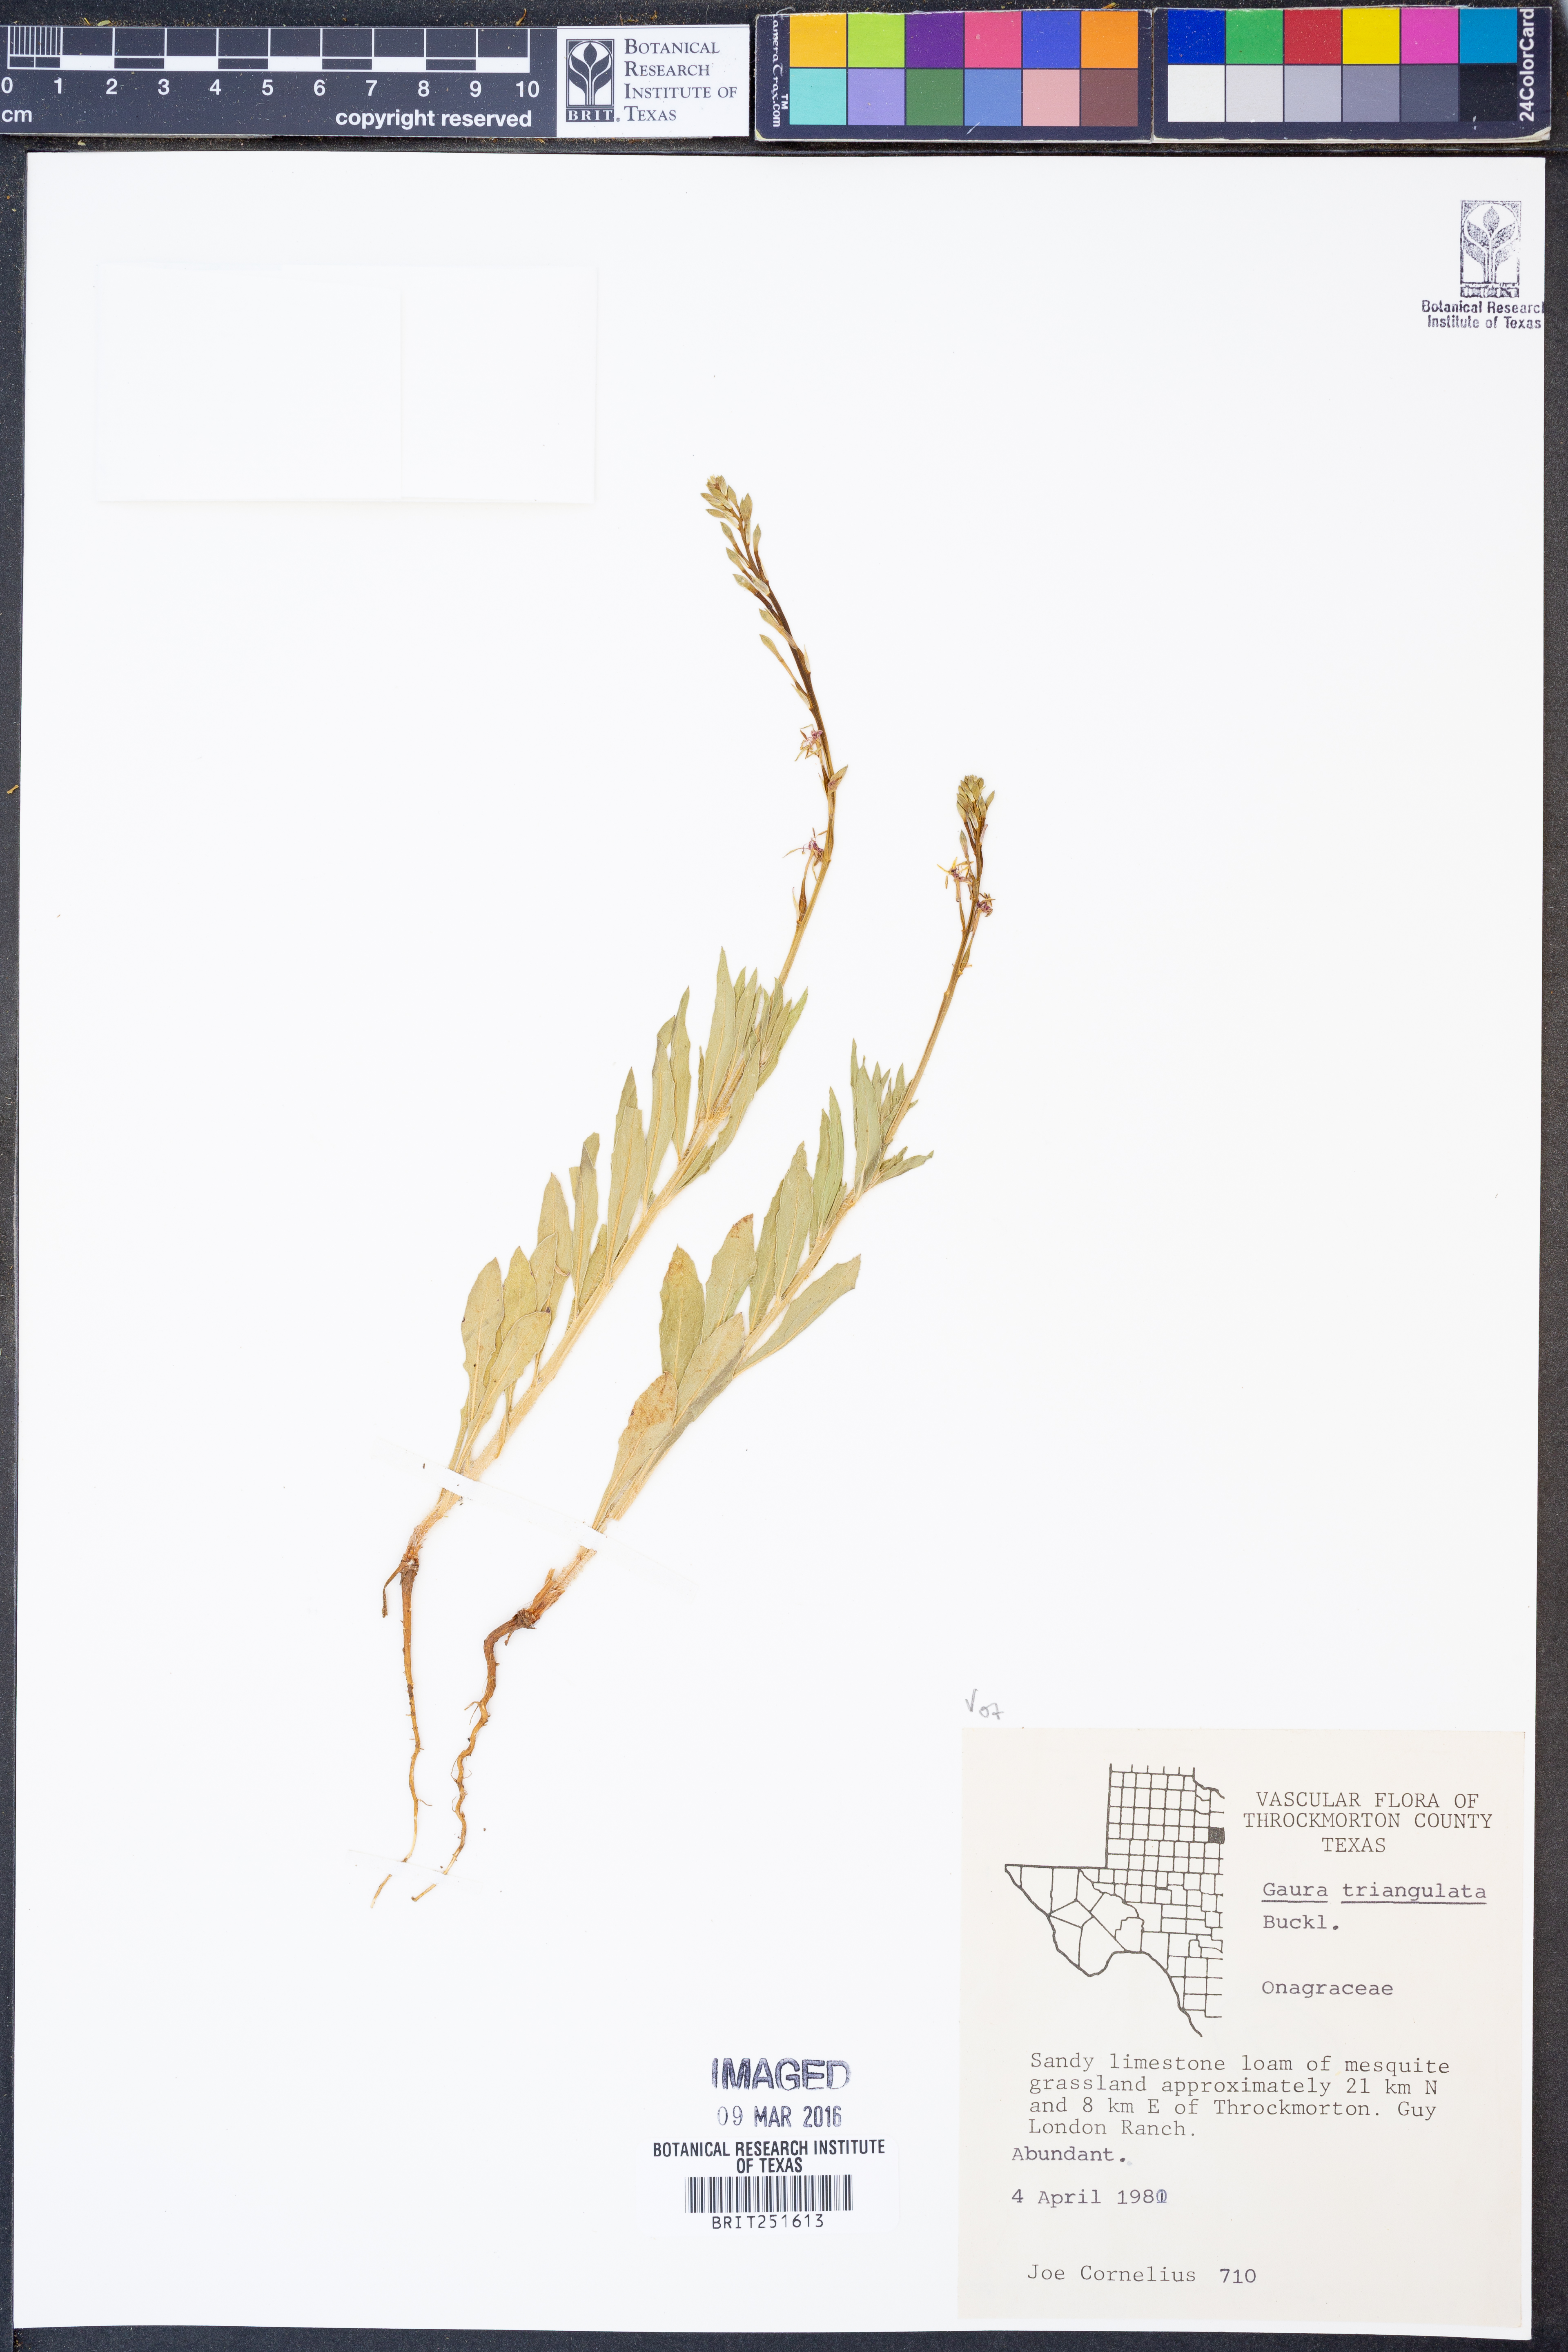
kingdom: Plantae
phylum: Tracheophyta
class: Magnoliopsida
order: Myrtales
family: Onagraceae
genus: Oenothera
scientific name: Oenothera triangulata
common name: Prairie beeblossom
